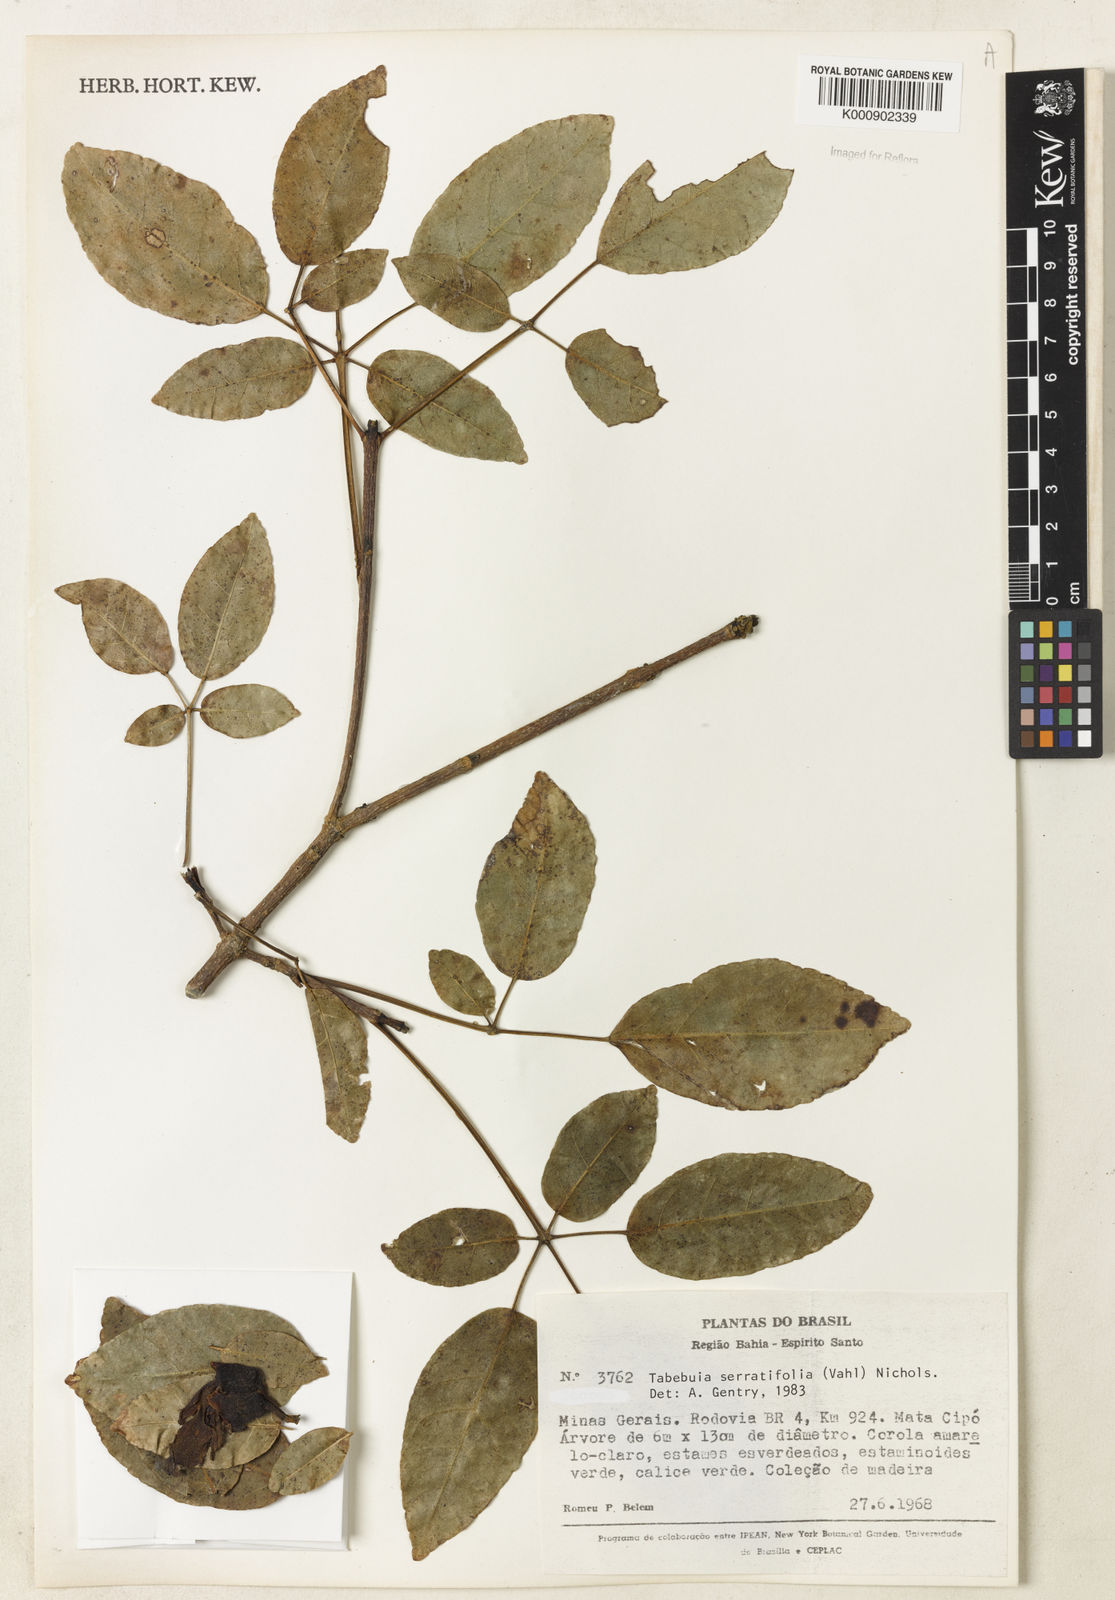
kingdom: Plantae
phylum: Tracheophyta
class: Magnoliopsida
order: Lamiales
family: Bignoniaceae
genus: Handroanthus
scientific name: Handroanthus serratifolius
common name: Yellow ipe
